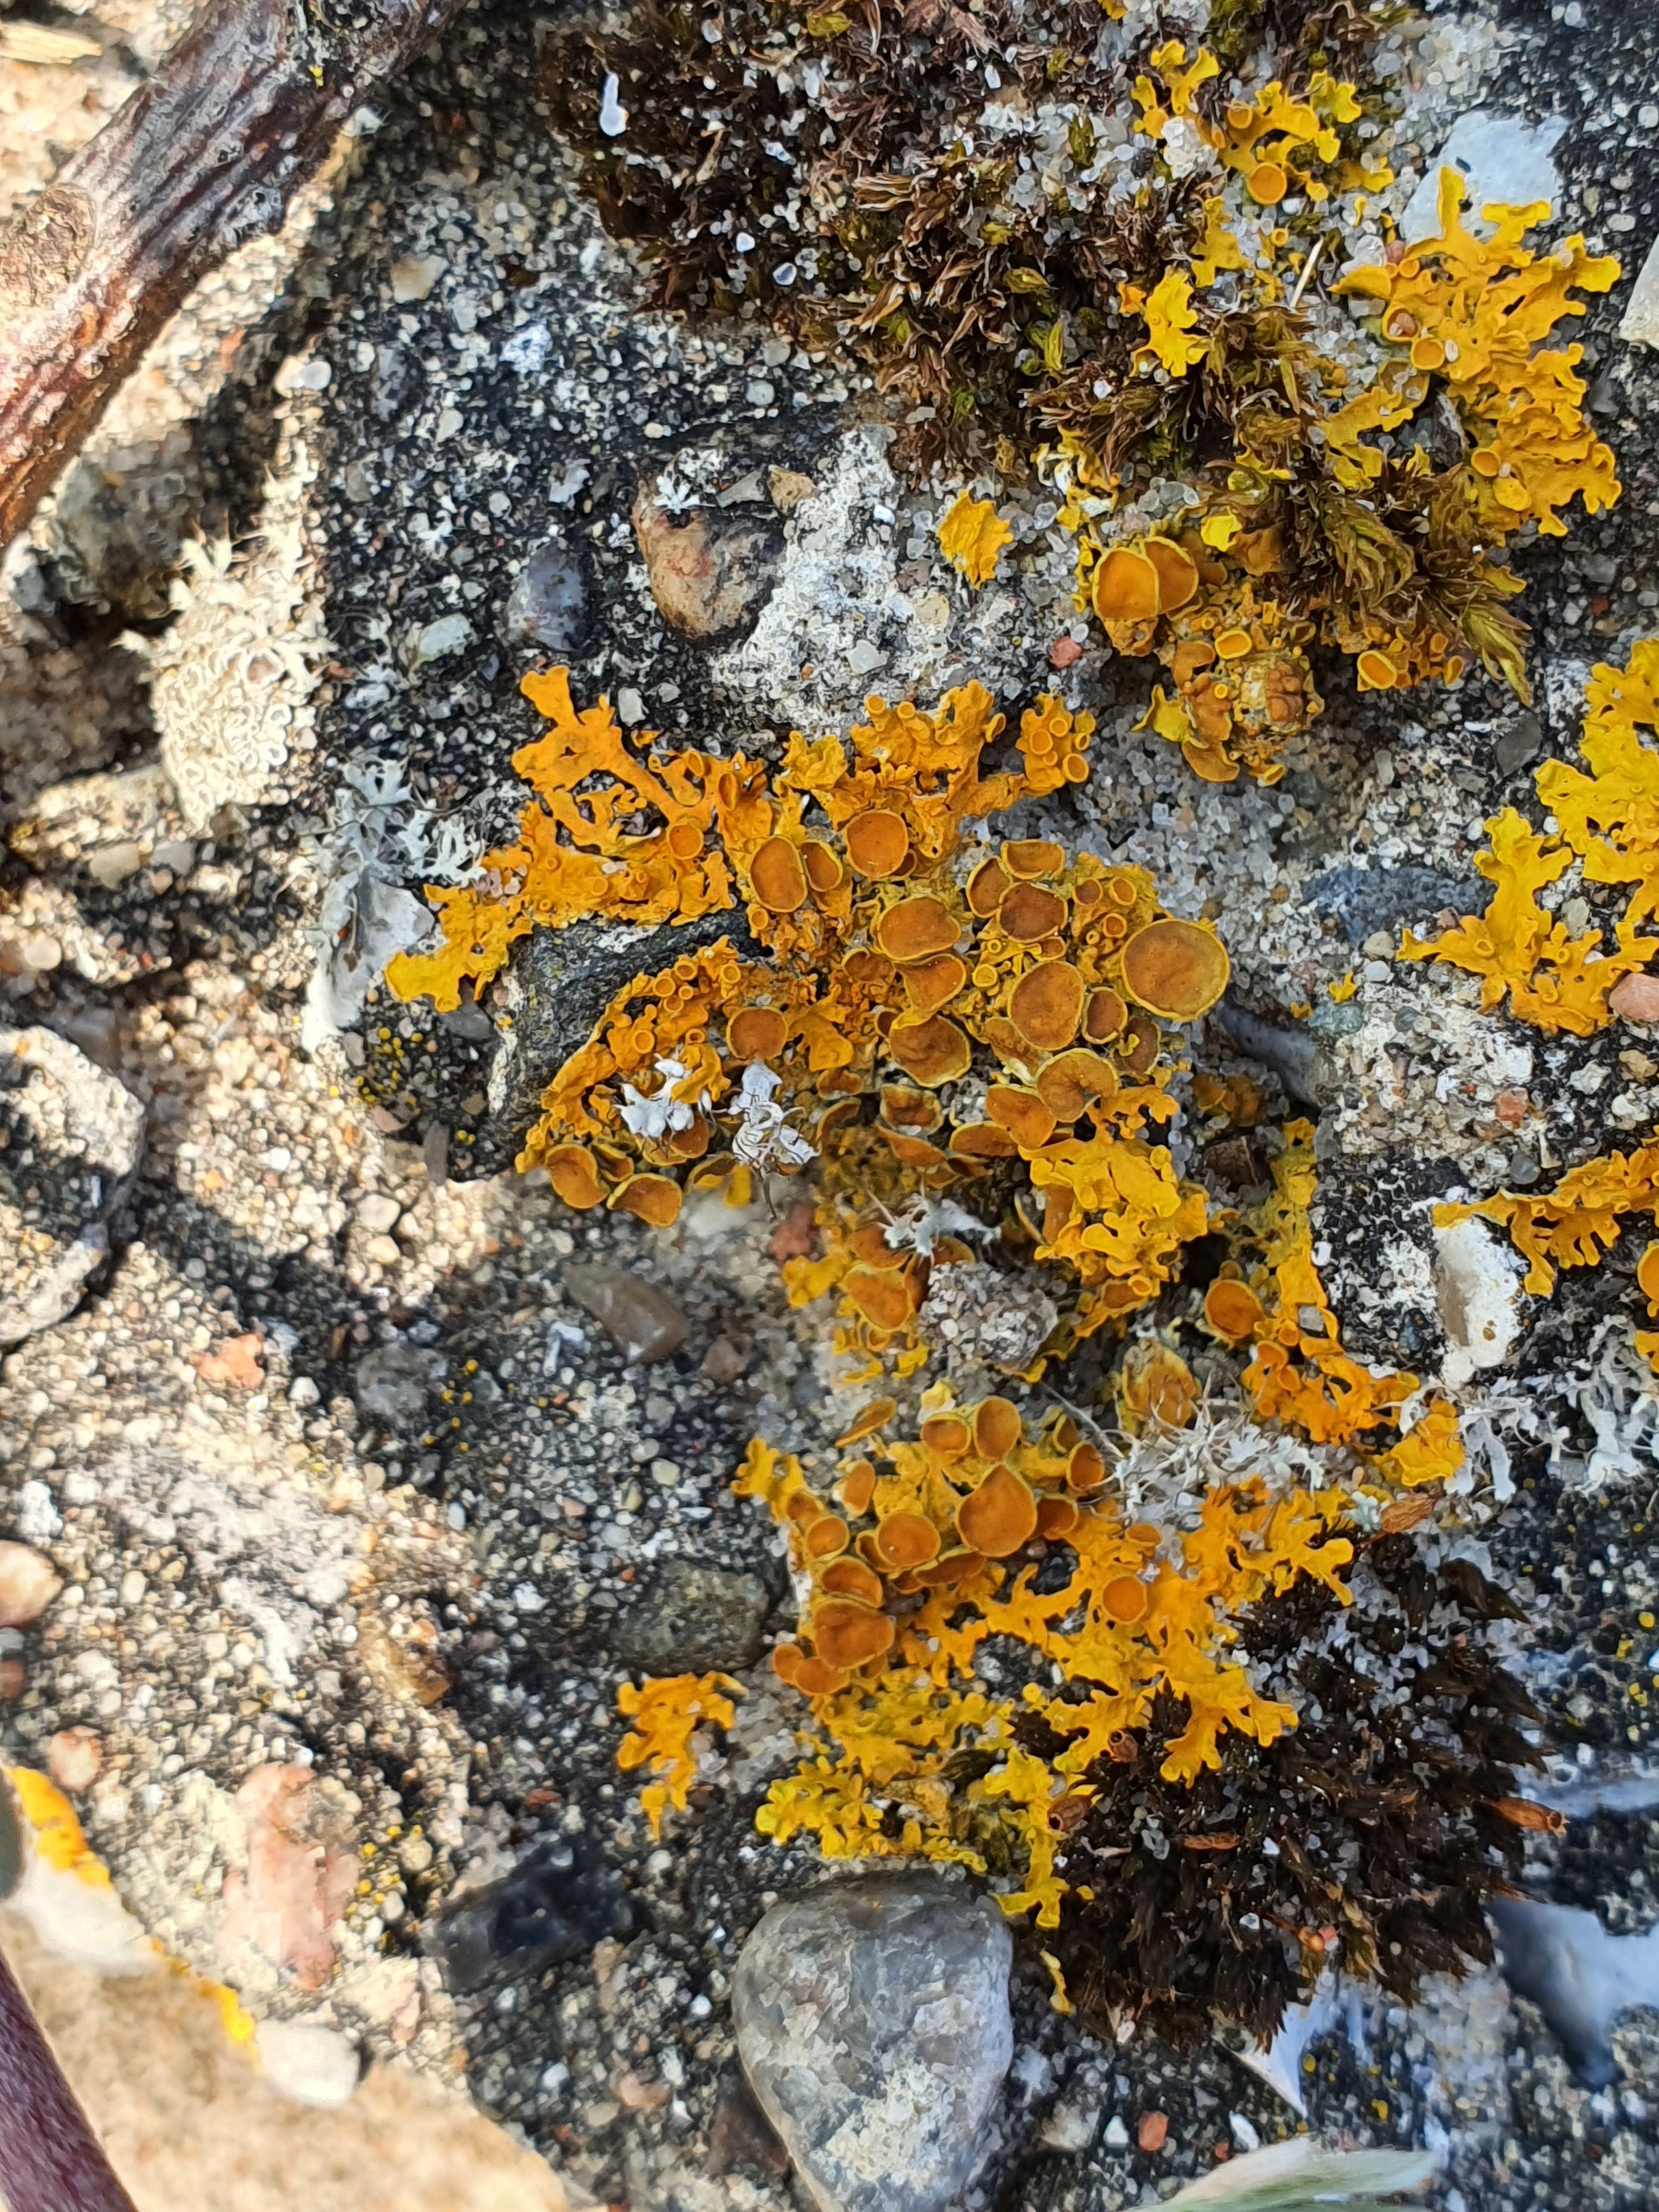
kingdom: Fungi
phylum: Ascomycota
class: Lecanoromycetes
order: Teloschistales
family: Teloschistaceae
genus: Xanthoria
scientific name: Xanthoria parietina
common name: Almindelig væggelav
